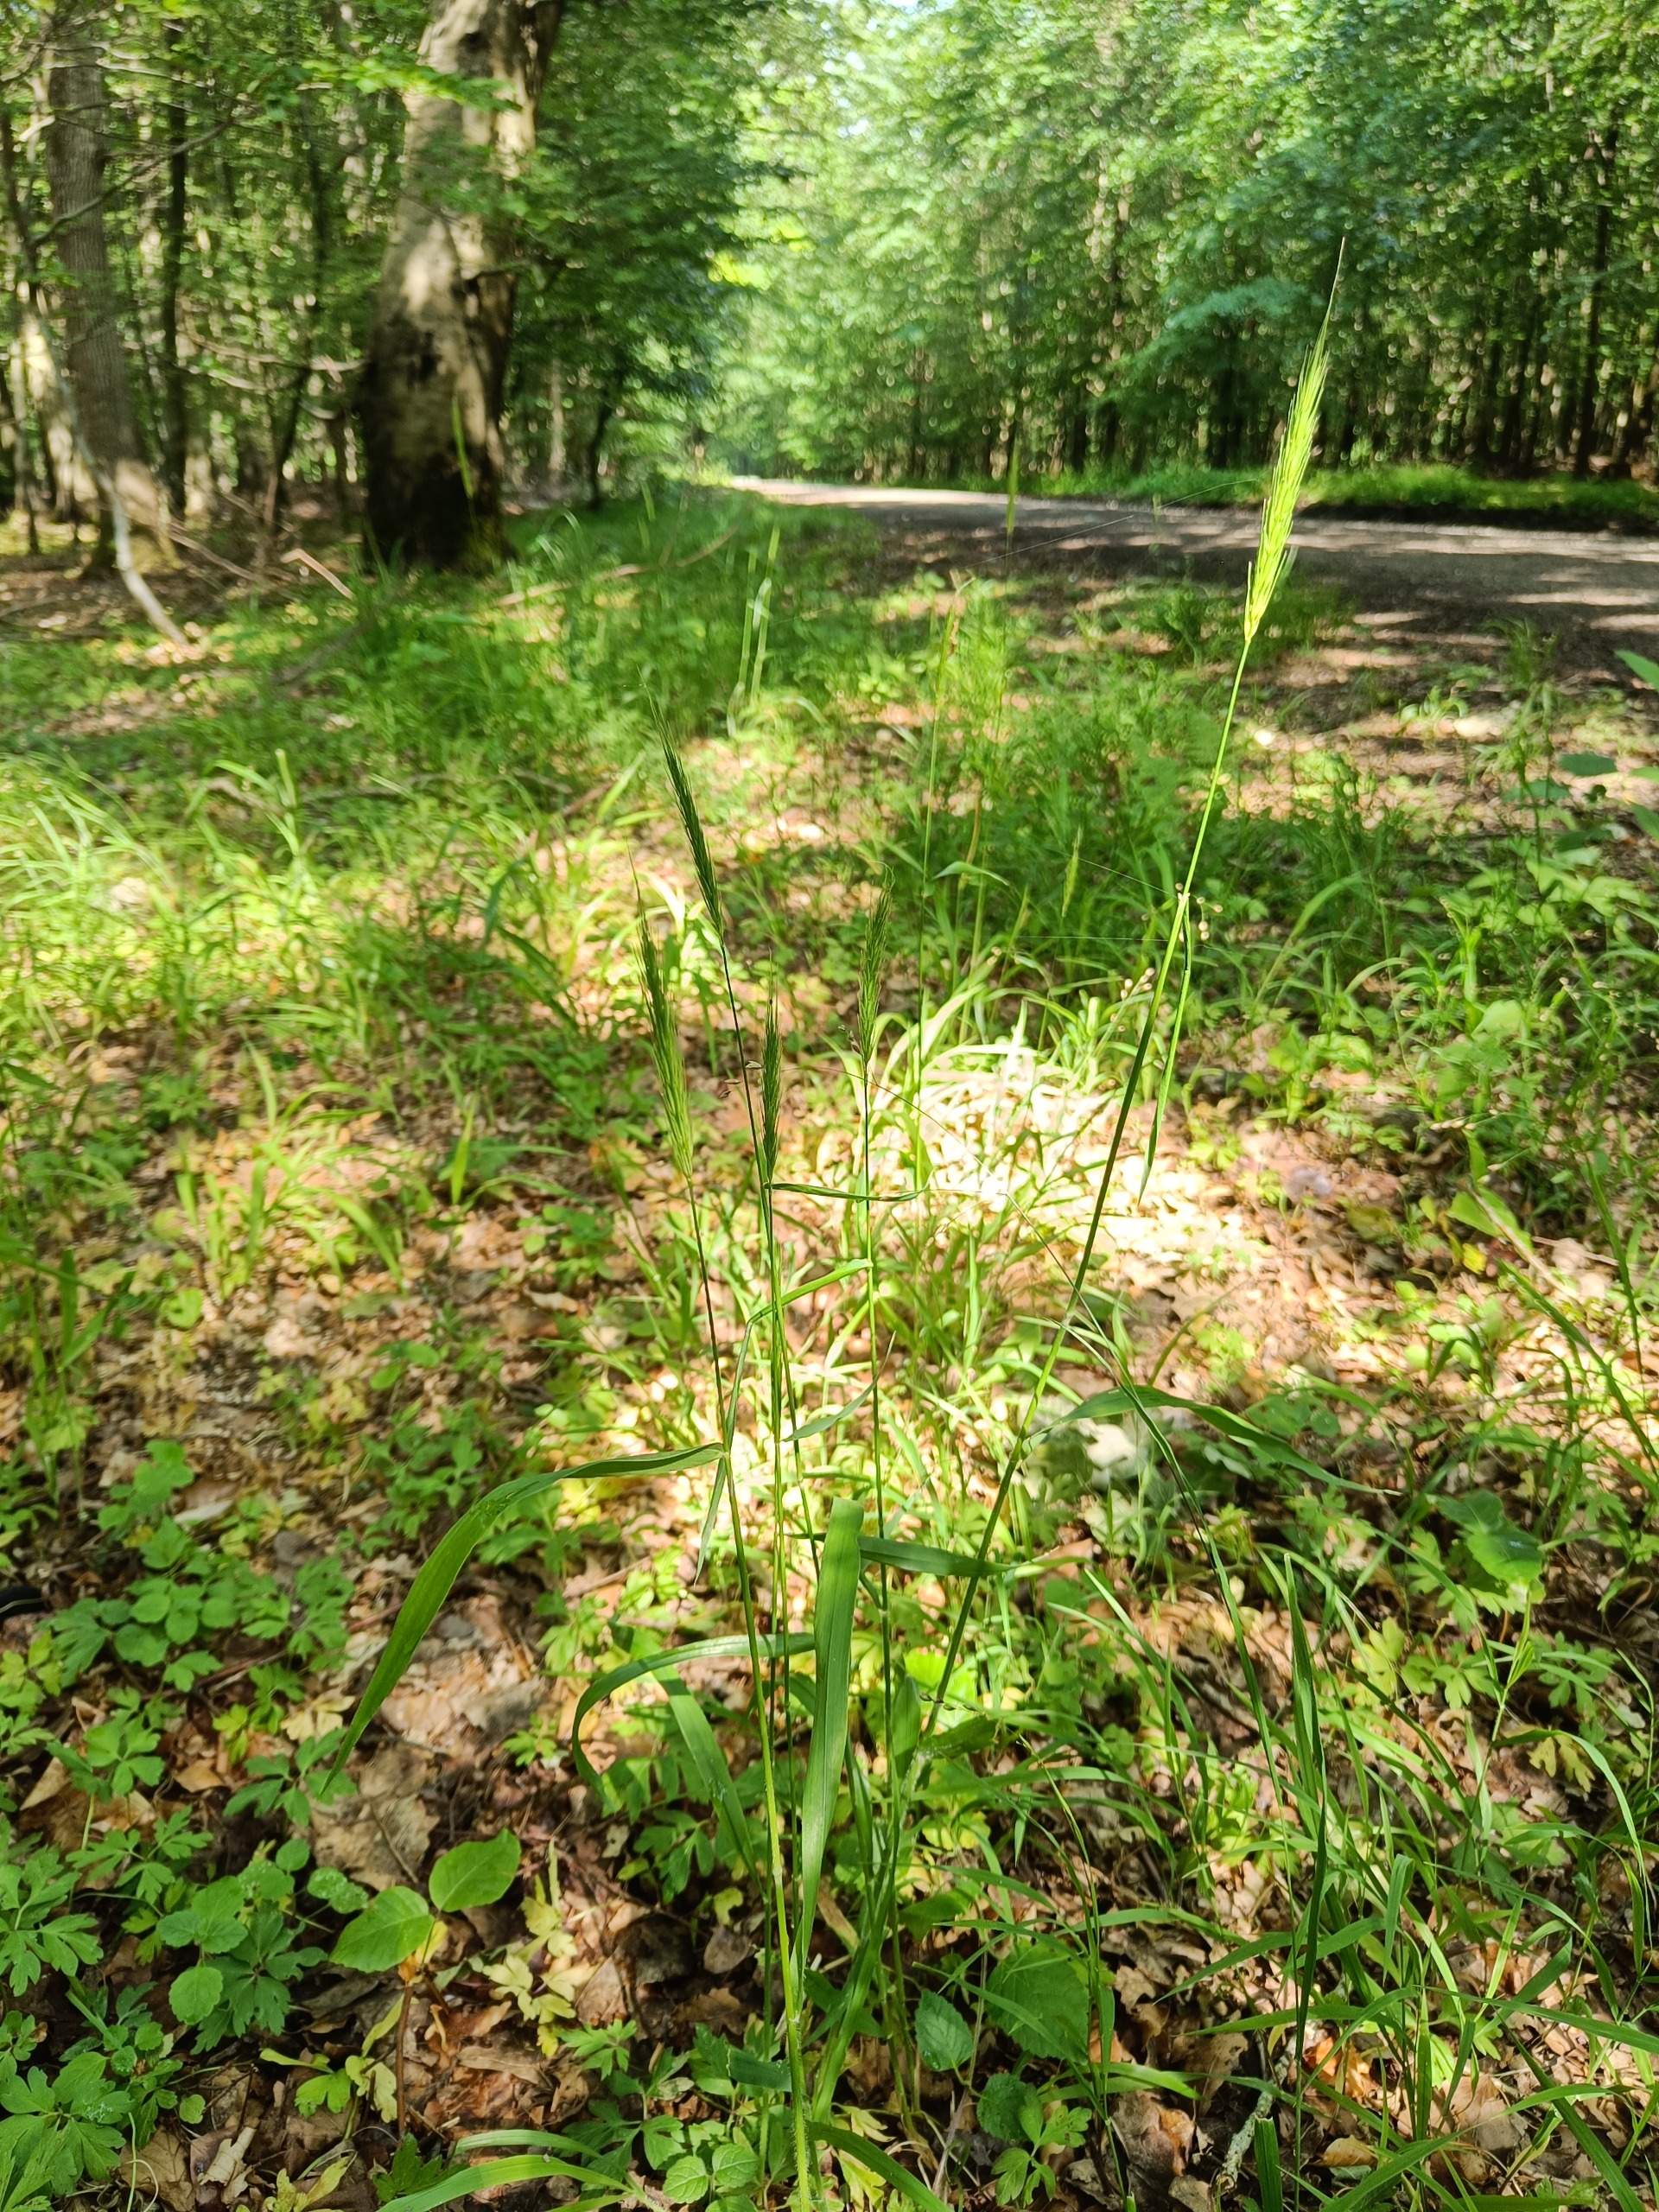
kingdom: Plantae
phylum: Tracheophyta
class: Liliopsida
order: Poales
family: Poaceae
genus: Hordelymus
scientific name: Hordelymus europaeus
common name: Skovbyg
